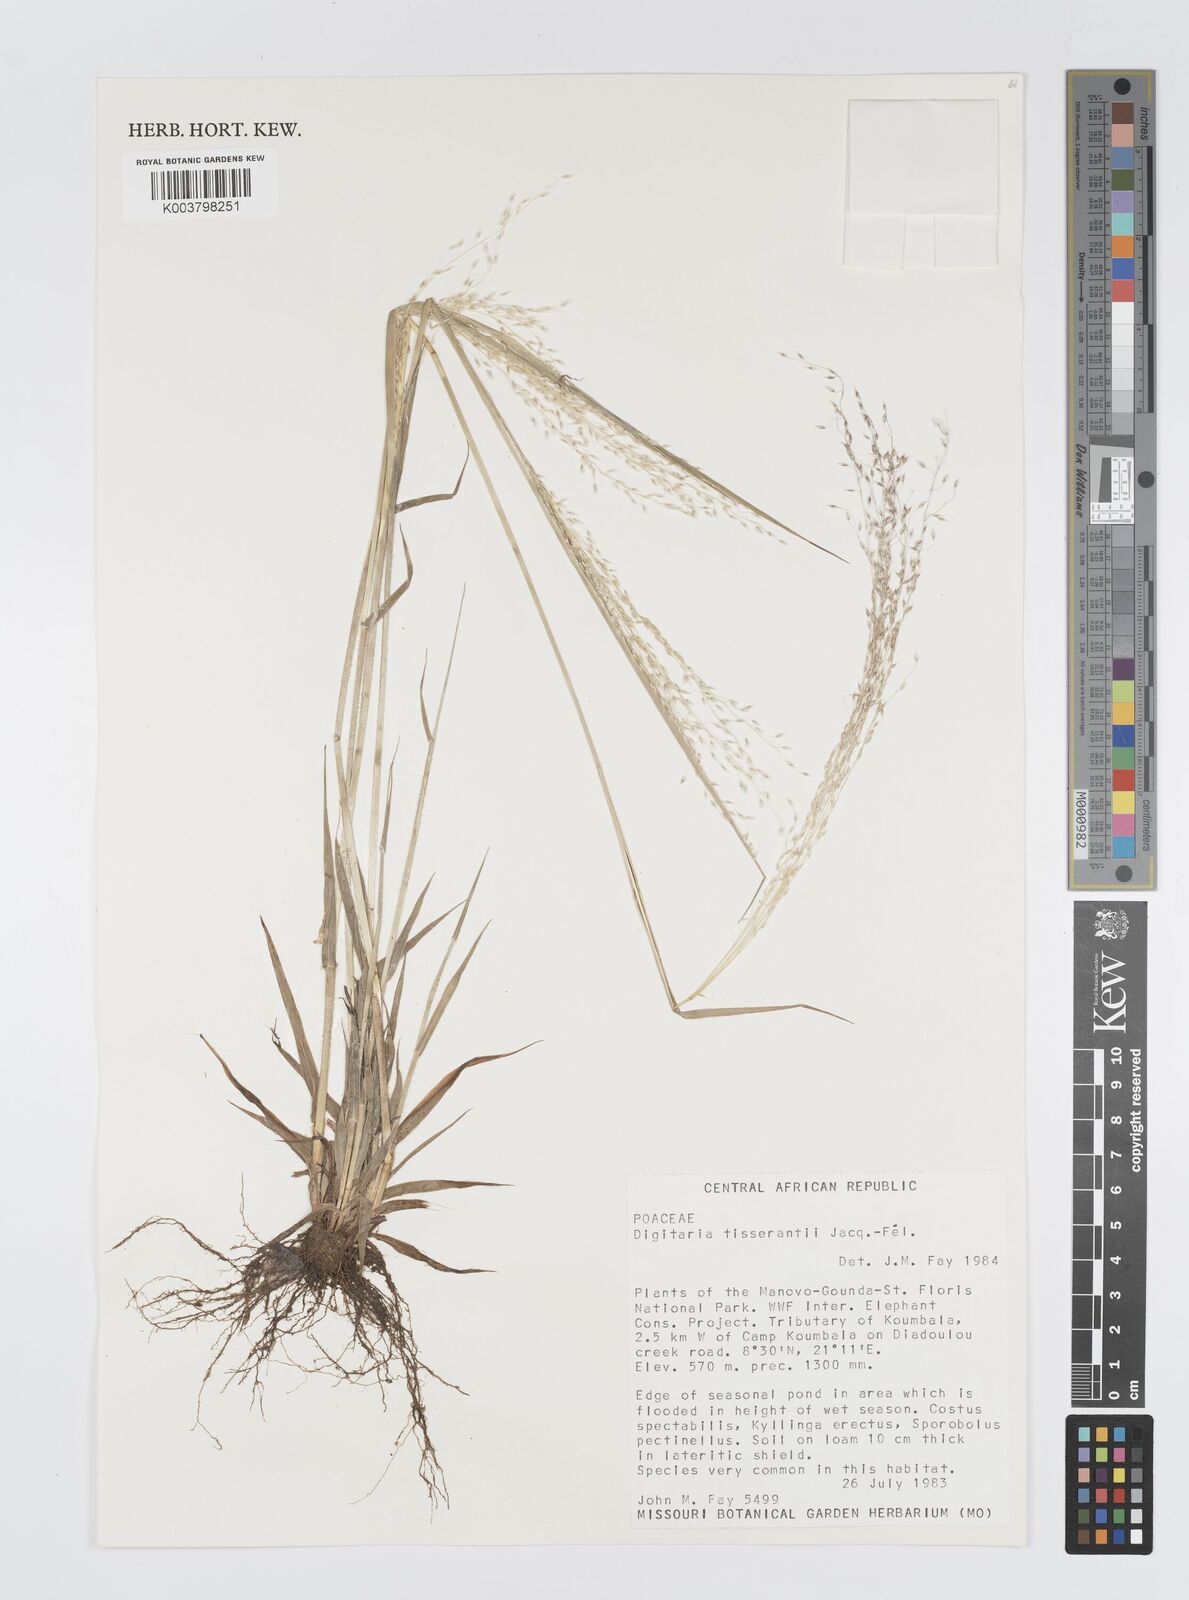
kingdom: Plantae
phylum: Tracheophyta
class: Liliopsida
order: Poales
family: Poaceae
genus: Digitaria
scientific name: Digitaria tisserantii
